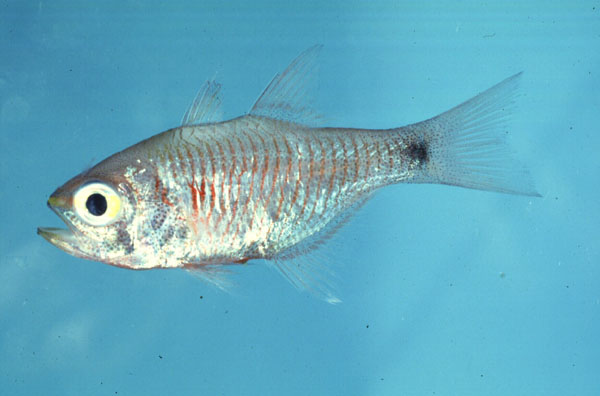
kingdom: Animalia
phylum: Chordata
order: Perciformes
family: Apogonidae
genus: Taeniamia
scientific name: Taeniamia fucata
